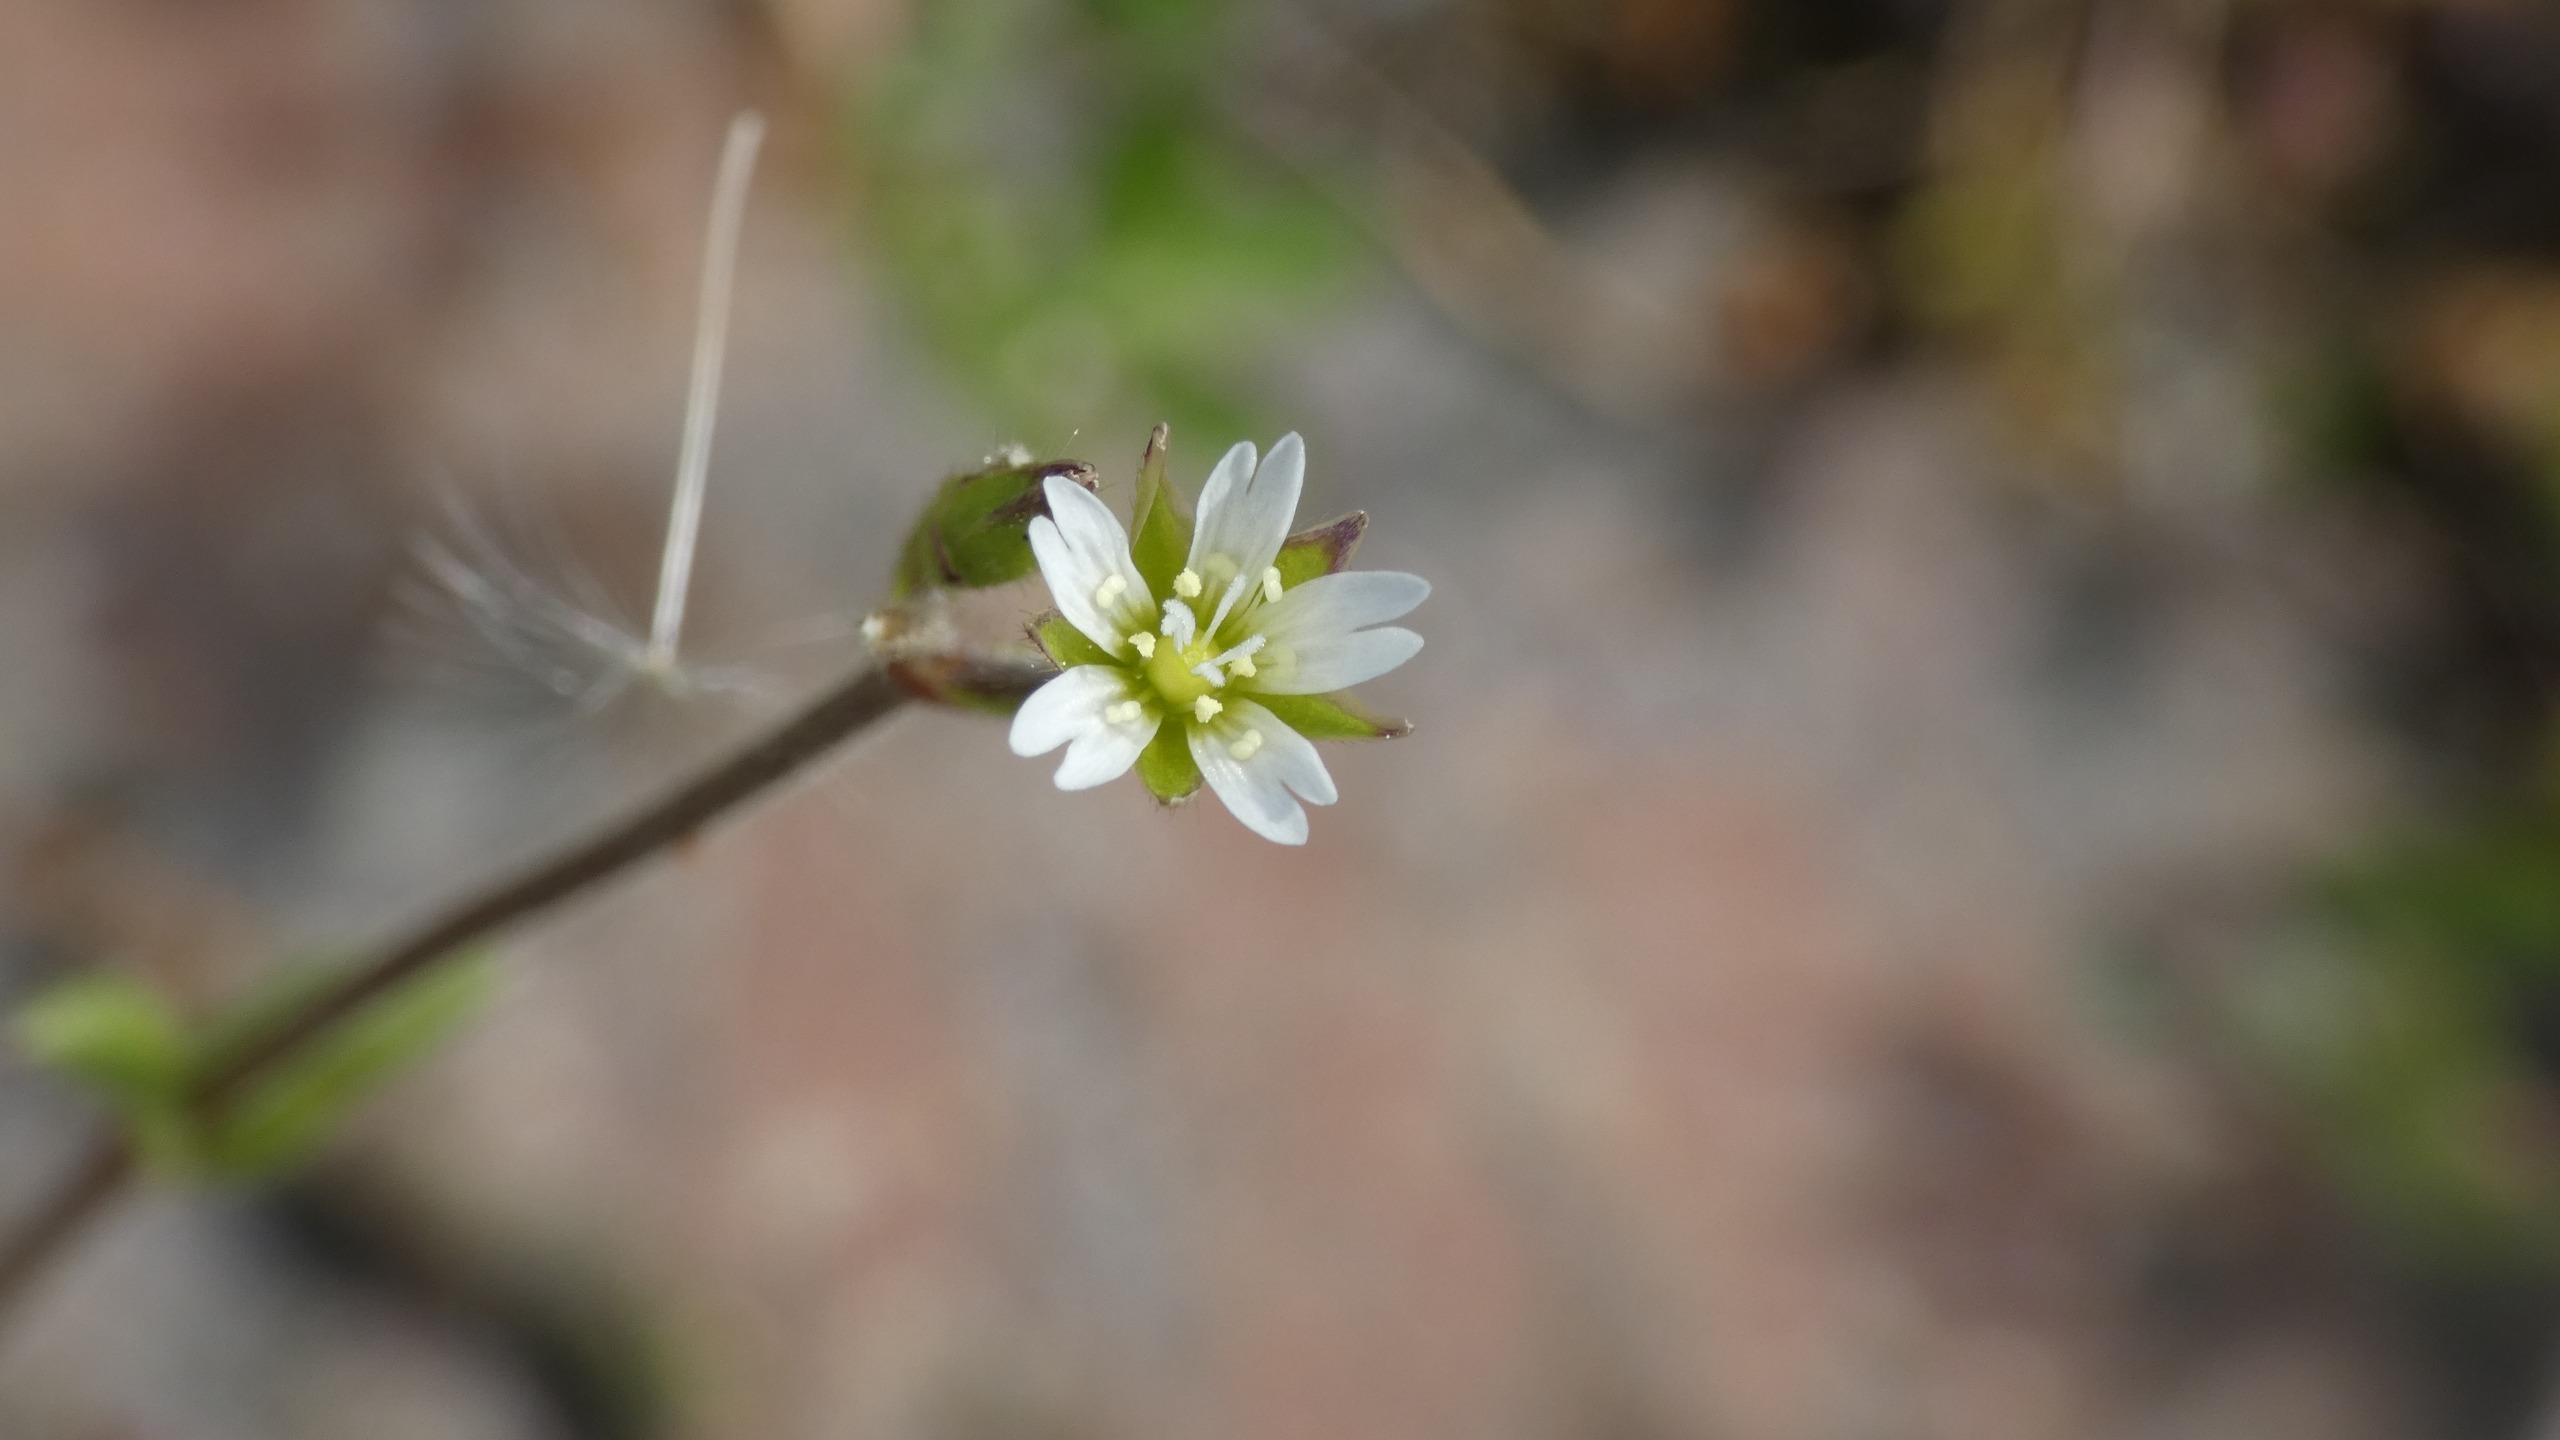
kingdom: Plantae
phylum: Tracheophyta
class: Magnoliopsida
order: Caryophyllales
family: Caryophyllaceae
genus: Cerastium
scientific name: Cerastium fontanum
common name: Almindelig hønsetarm
